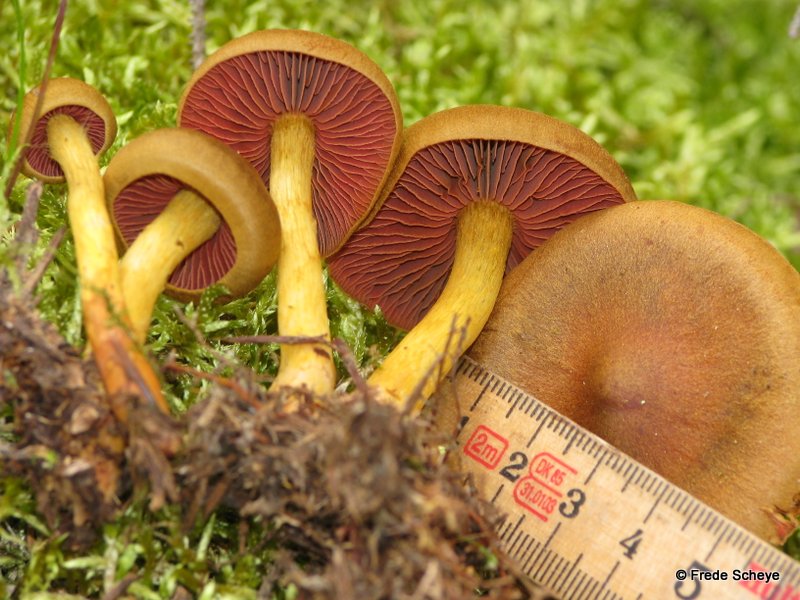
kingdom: Fungi
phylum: Basidiomycota
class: Agaricomycetes
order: Agaricales
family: Cortinariaceae
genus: Cortinarius
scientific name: Cortinarius
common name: cinnoberbladet slørhat
